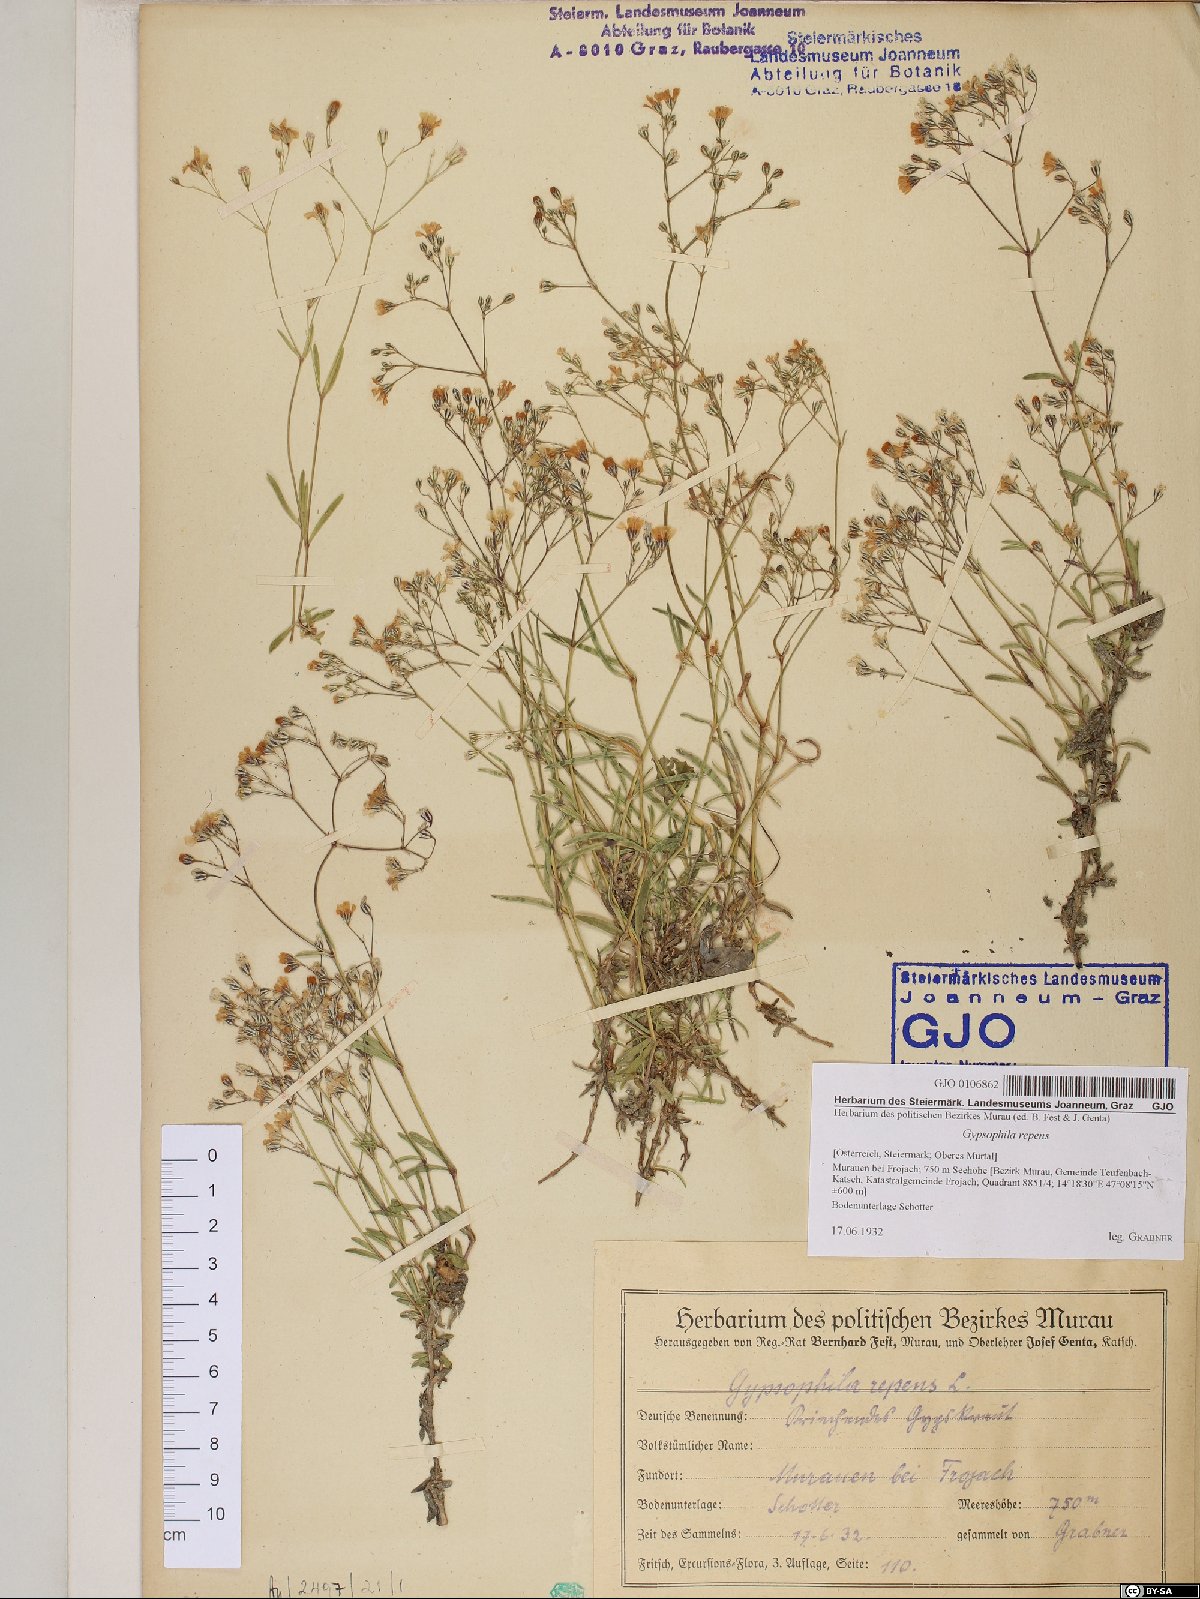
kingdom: Plantae
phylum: Tracheophyta
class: Magnoliopsida
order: Caryophyllales
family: Caryophyllaceae
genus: Gypsophila
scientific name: Gypsophila repens
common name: Creeping baby's-breath
